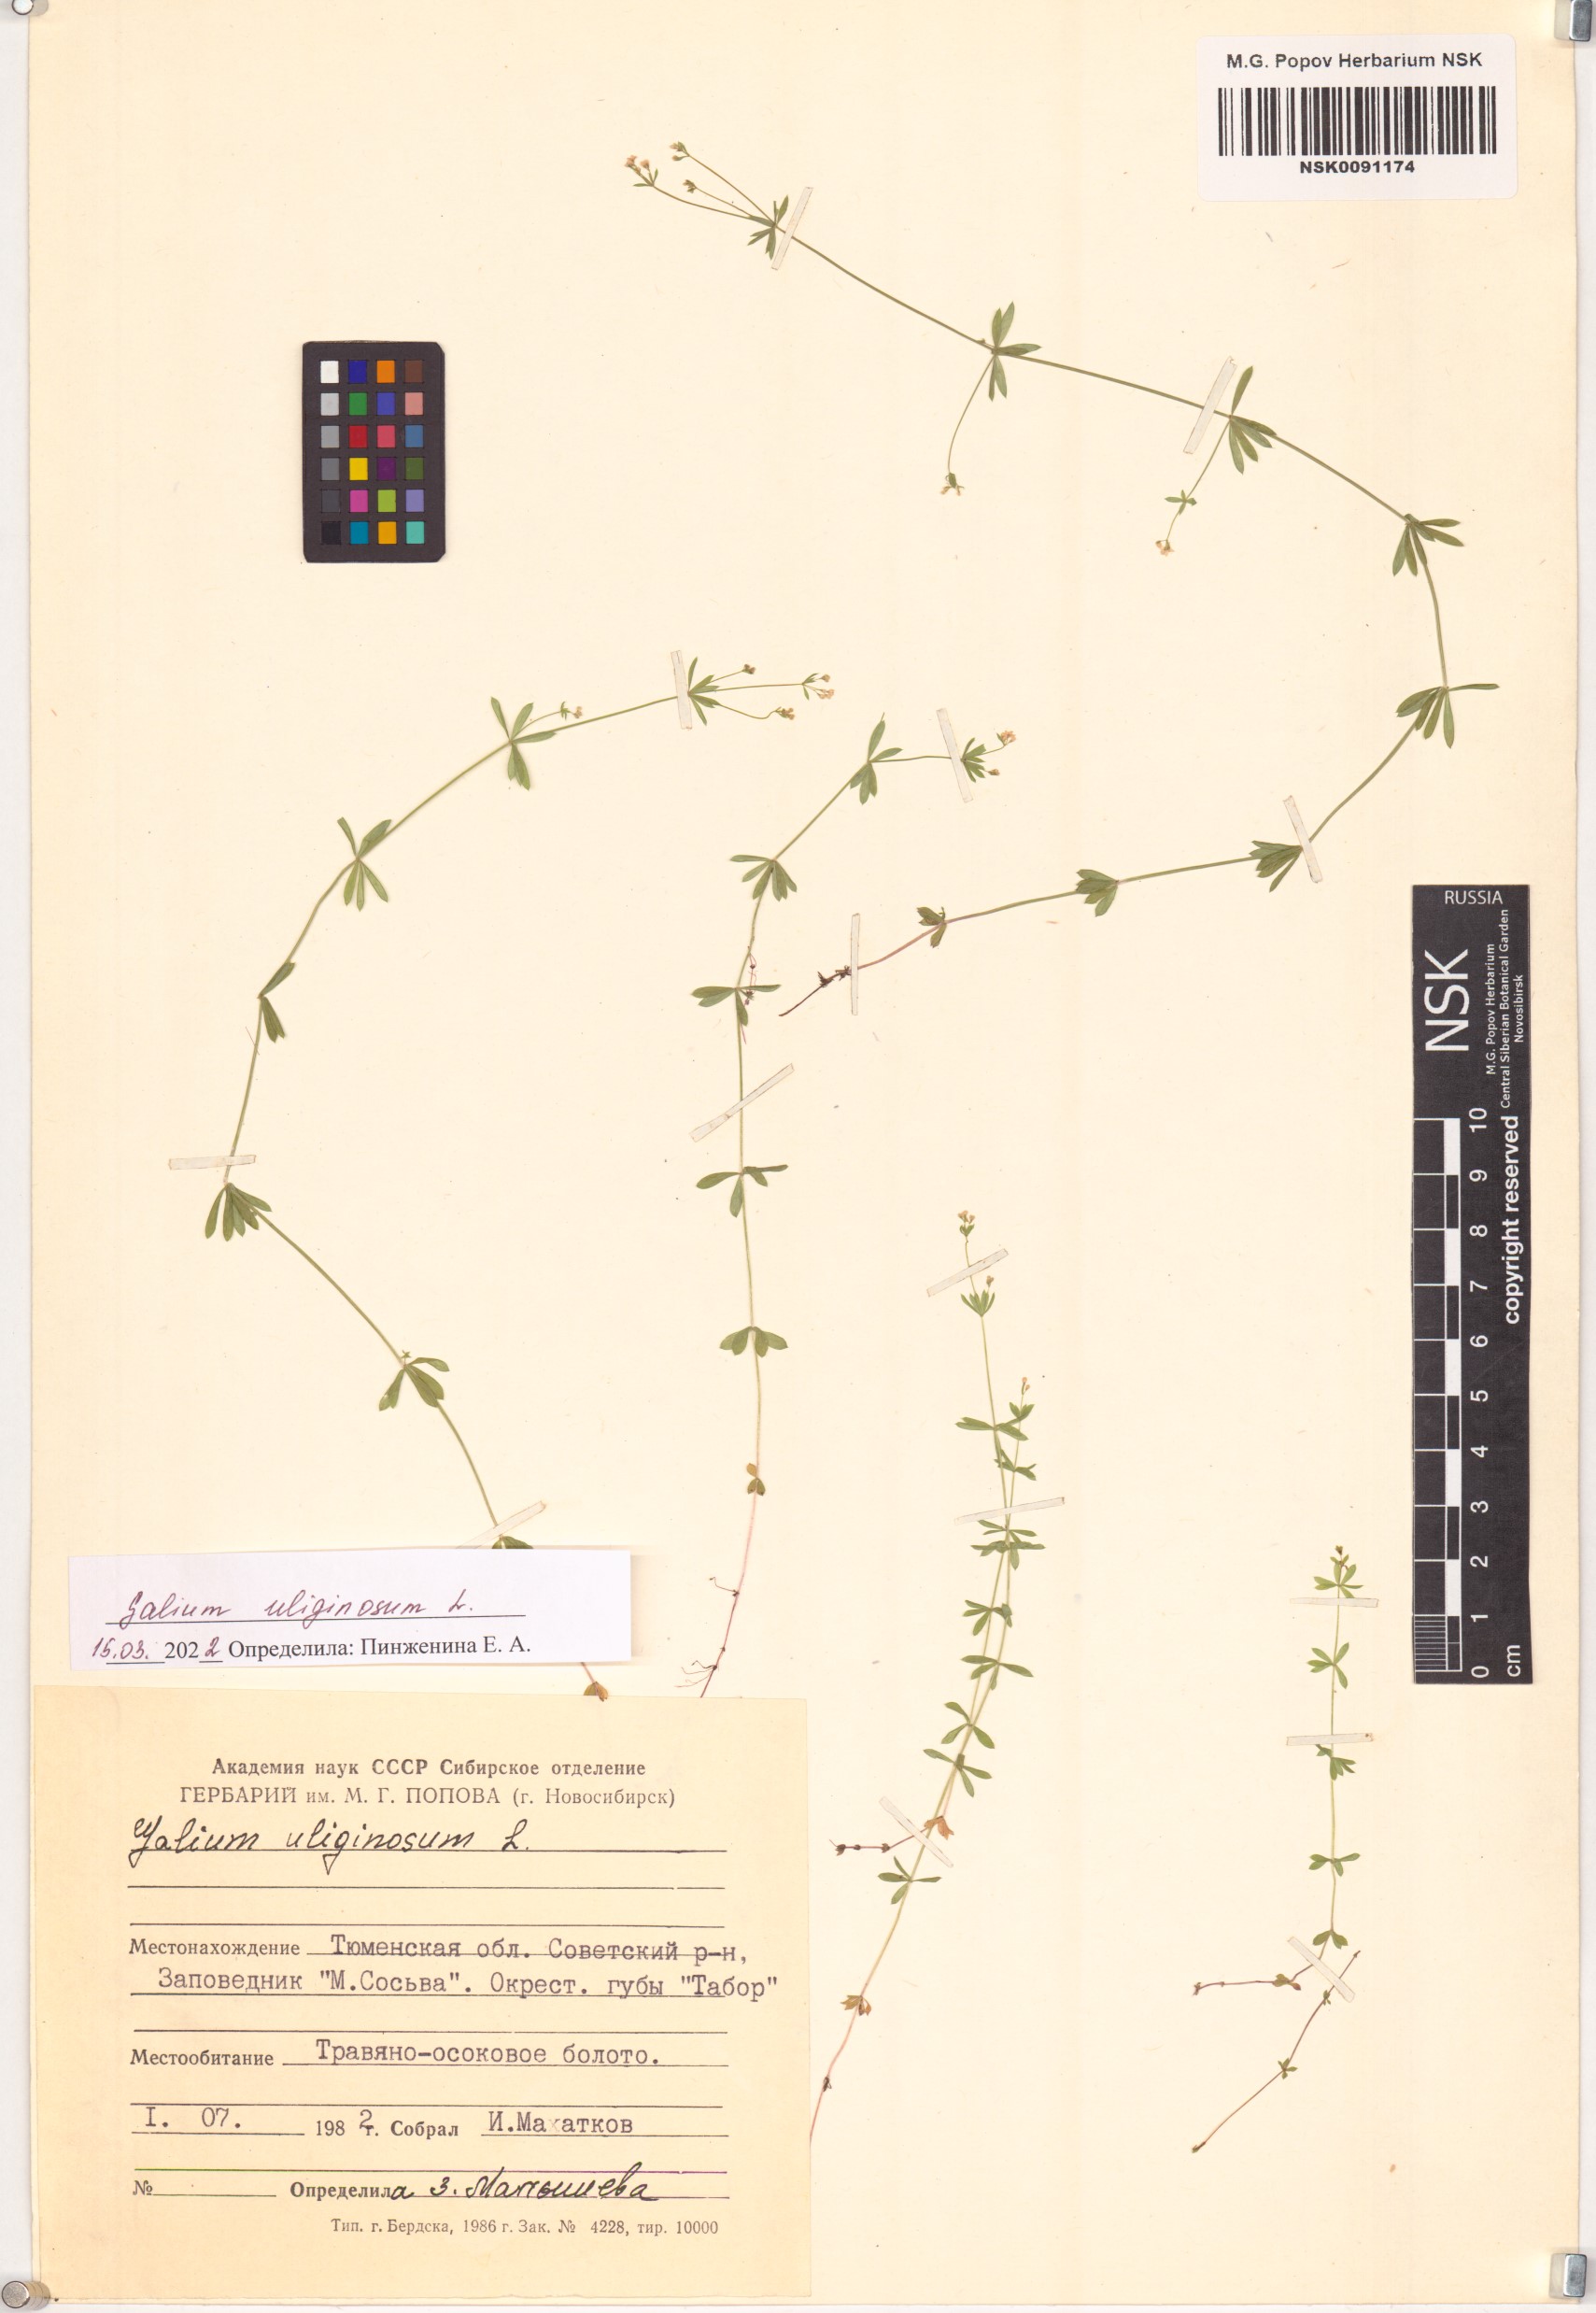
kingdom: Plantae
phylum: Tracheophyta
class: Magnoliopsida
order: Gentianales
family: Rubiaceae
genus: Galium
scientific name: Galium uliginosum
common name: Fen bedstraw
